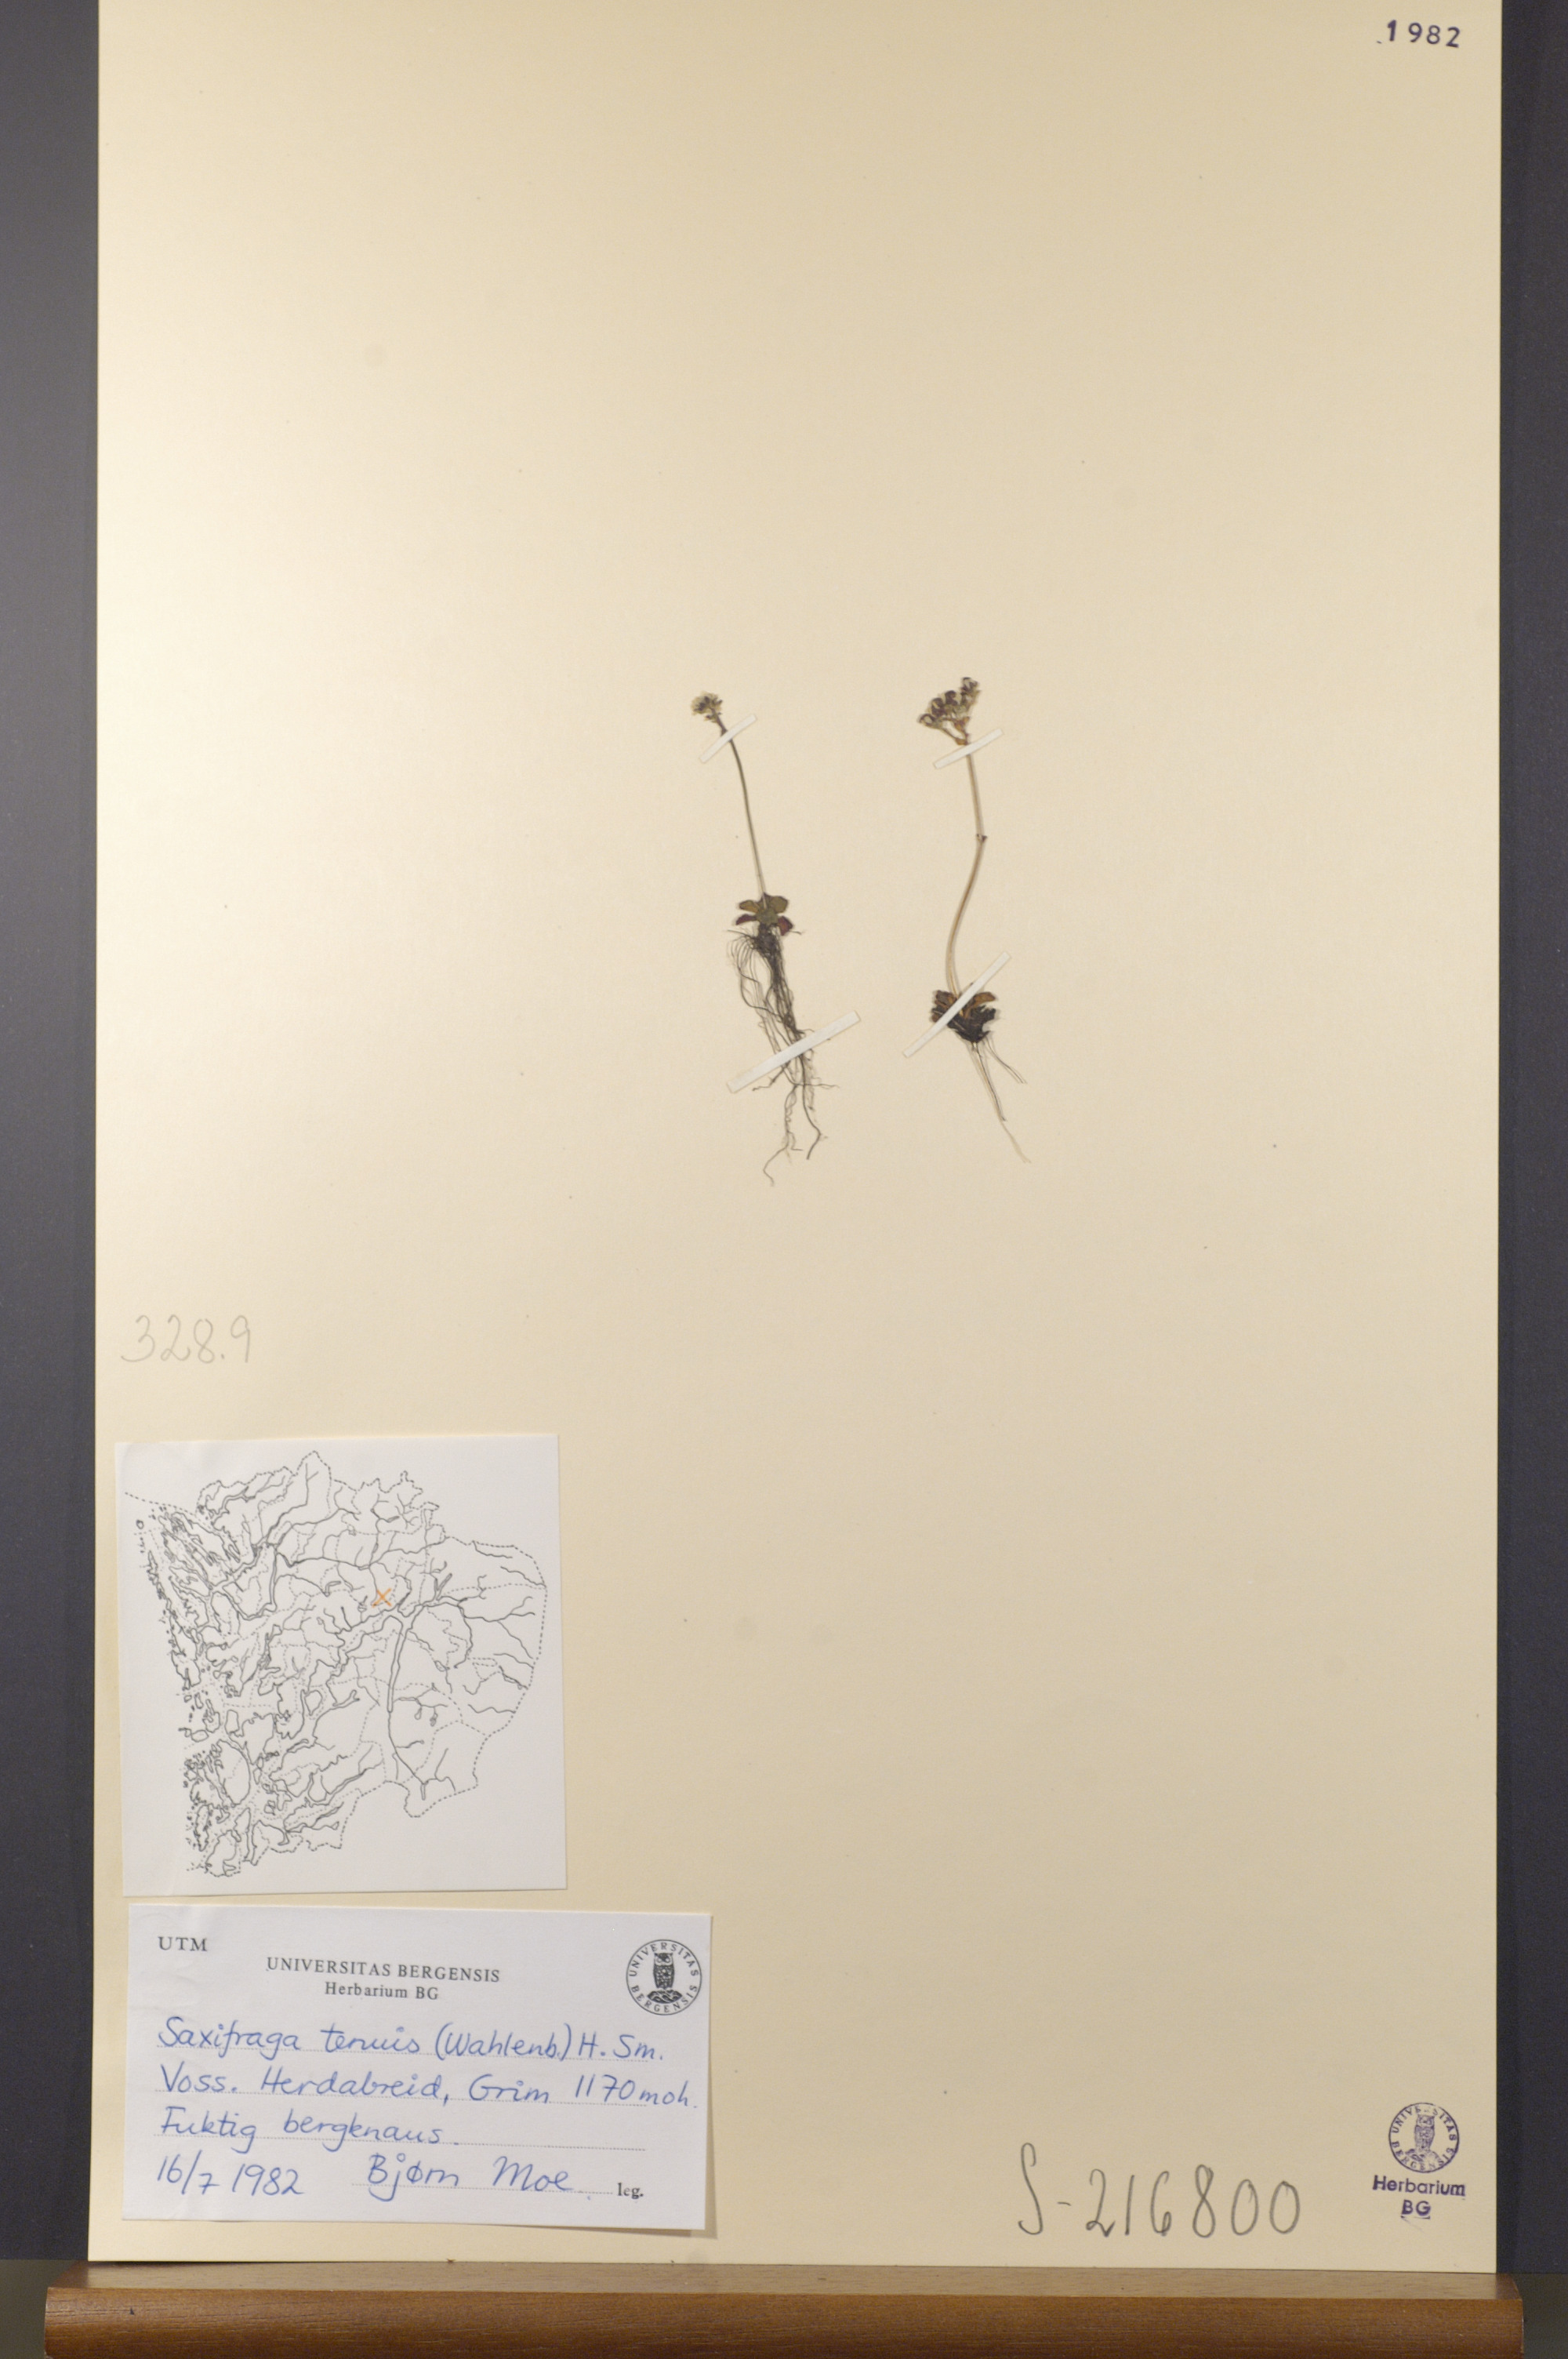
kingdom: Plantae
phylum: Tracheophyta
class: Magnoliopsida
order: Saxifragales
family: Saxifragaceae
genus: Micranthes
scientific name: Micranthes tenuis
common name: Ottertail pass saxifrage
